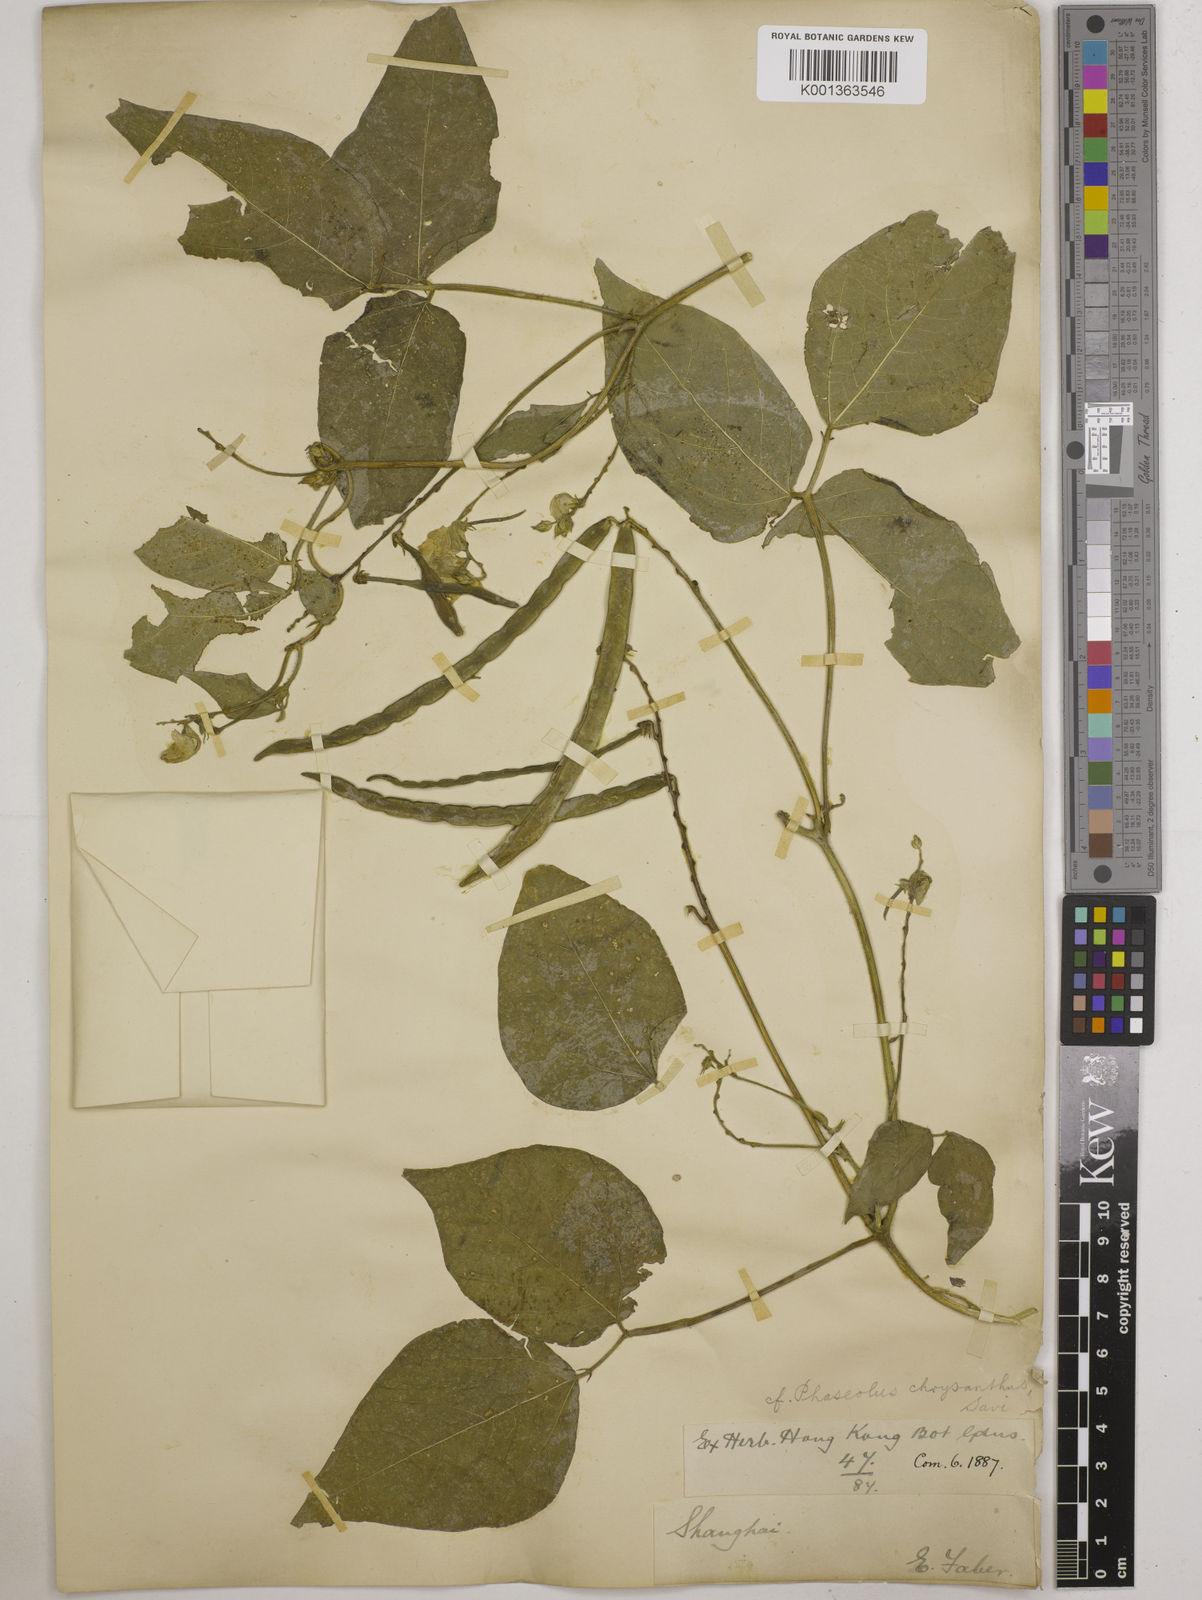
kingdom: Plantae
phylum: Tracheophyta
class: Magnoliopsida
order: Fabales
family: Fabaceae
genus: Vigna
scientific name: Vigna umbellata
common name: Oriental-bean
